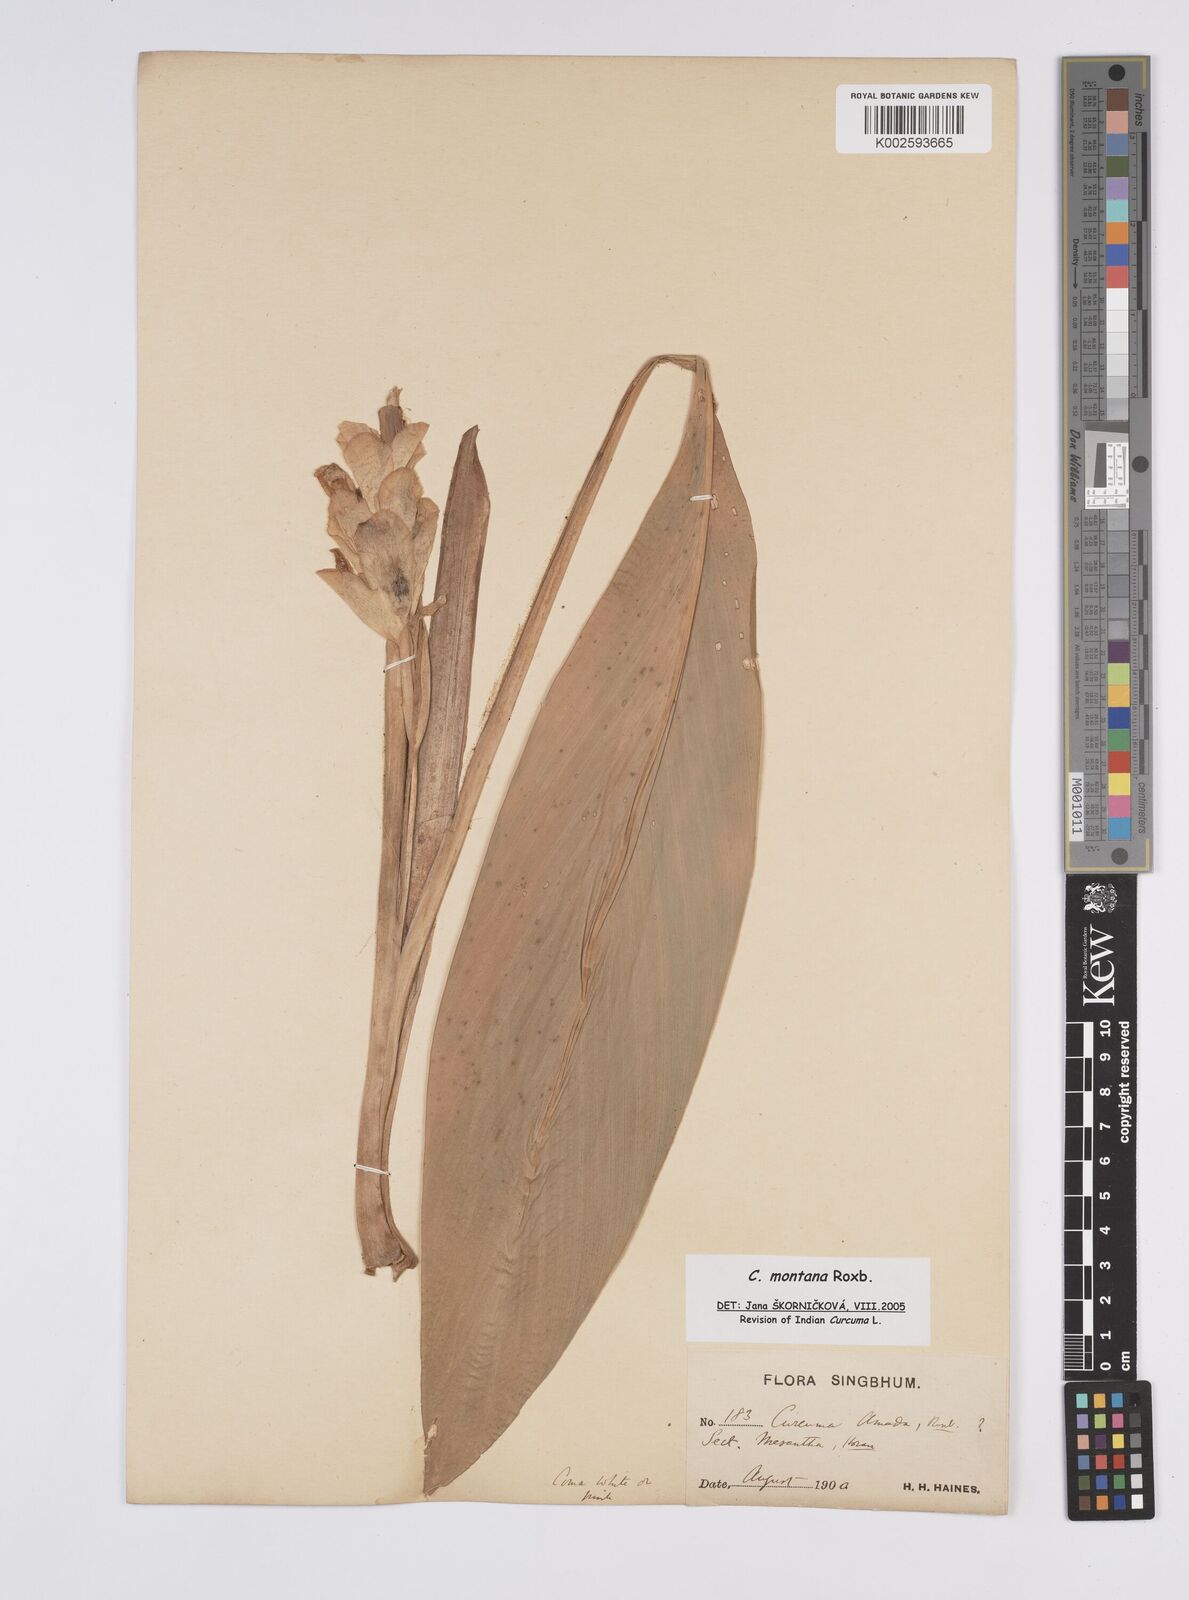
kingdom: Plantae
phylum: Tracheophyta
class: Liliopsida
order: Zingiberales
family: Zingiberaceae
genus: Curcuma
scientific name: Curcuma montana
